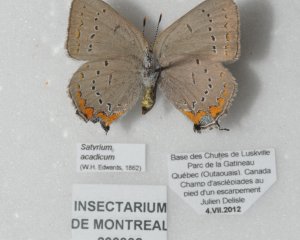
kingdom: Animalia
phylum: Arthropoda
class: Insecta
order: Lepidoptera
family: Lycaenidae
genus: Strymon
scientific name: Strymon acadica
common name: Acadian Hairstreak
